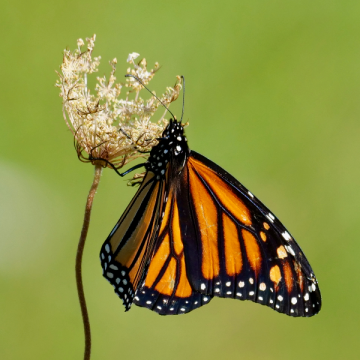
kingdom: Animalia
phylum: Arthropoda
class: Insecta
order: Lepidoptera
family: Nymphalidae
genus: Danaus
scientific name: Danaus plexippus
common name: Monarch
